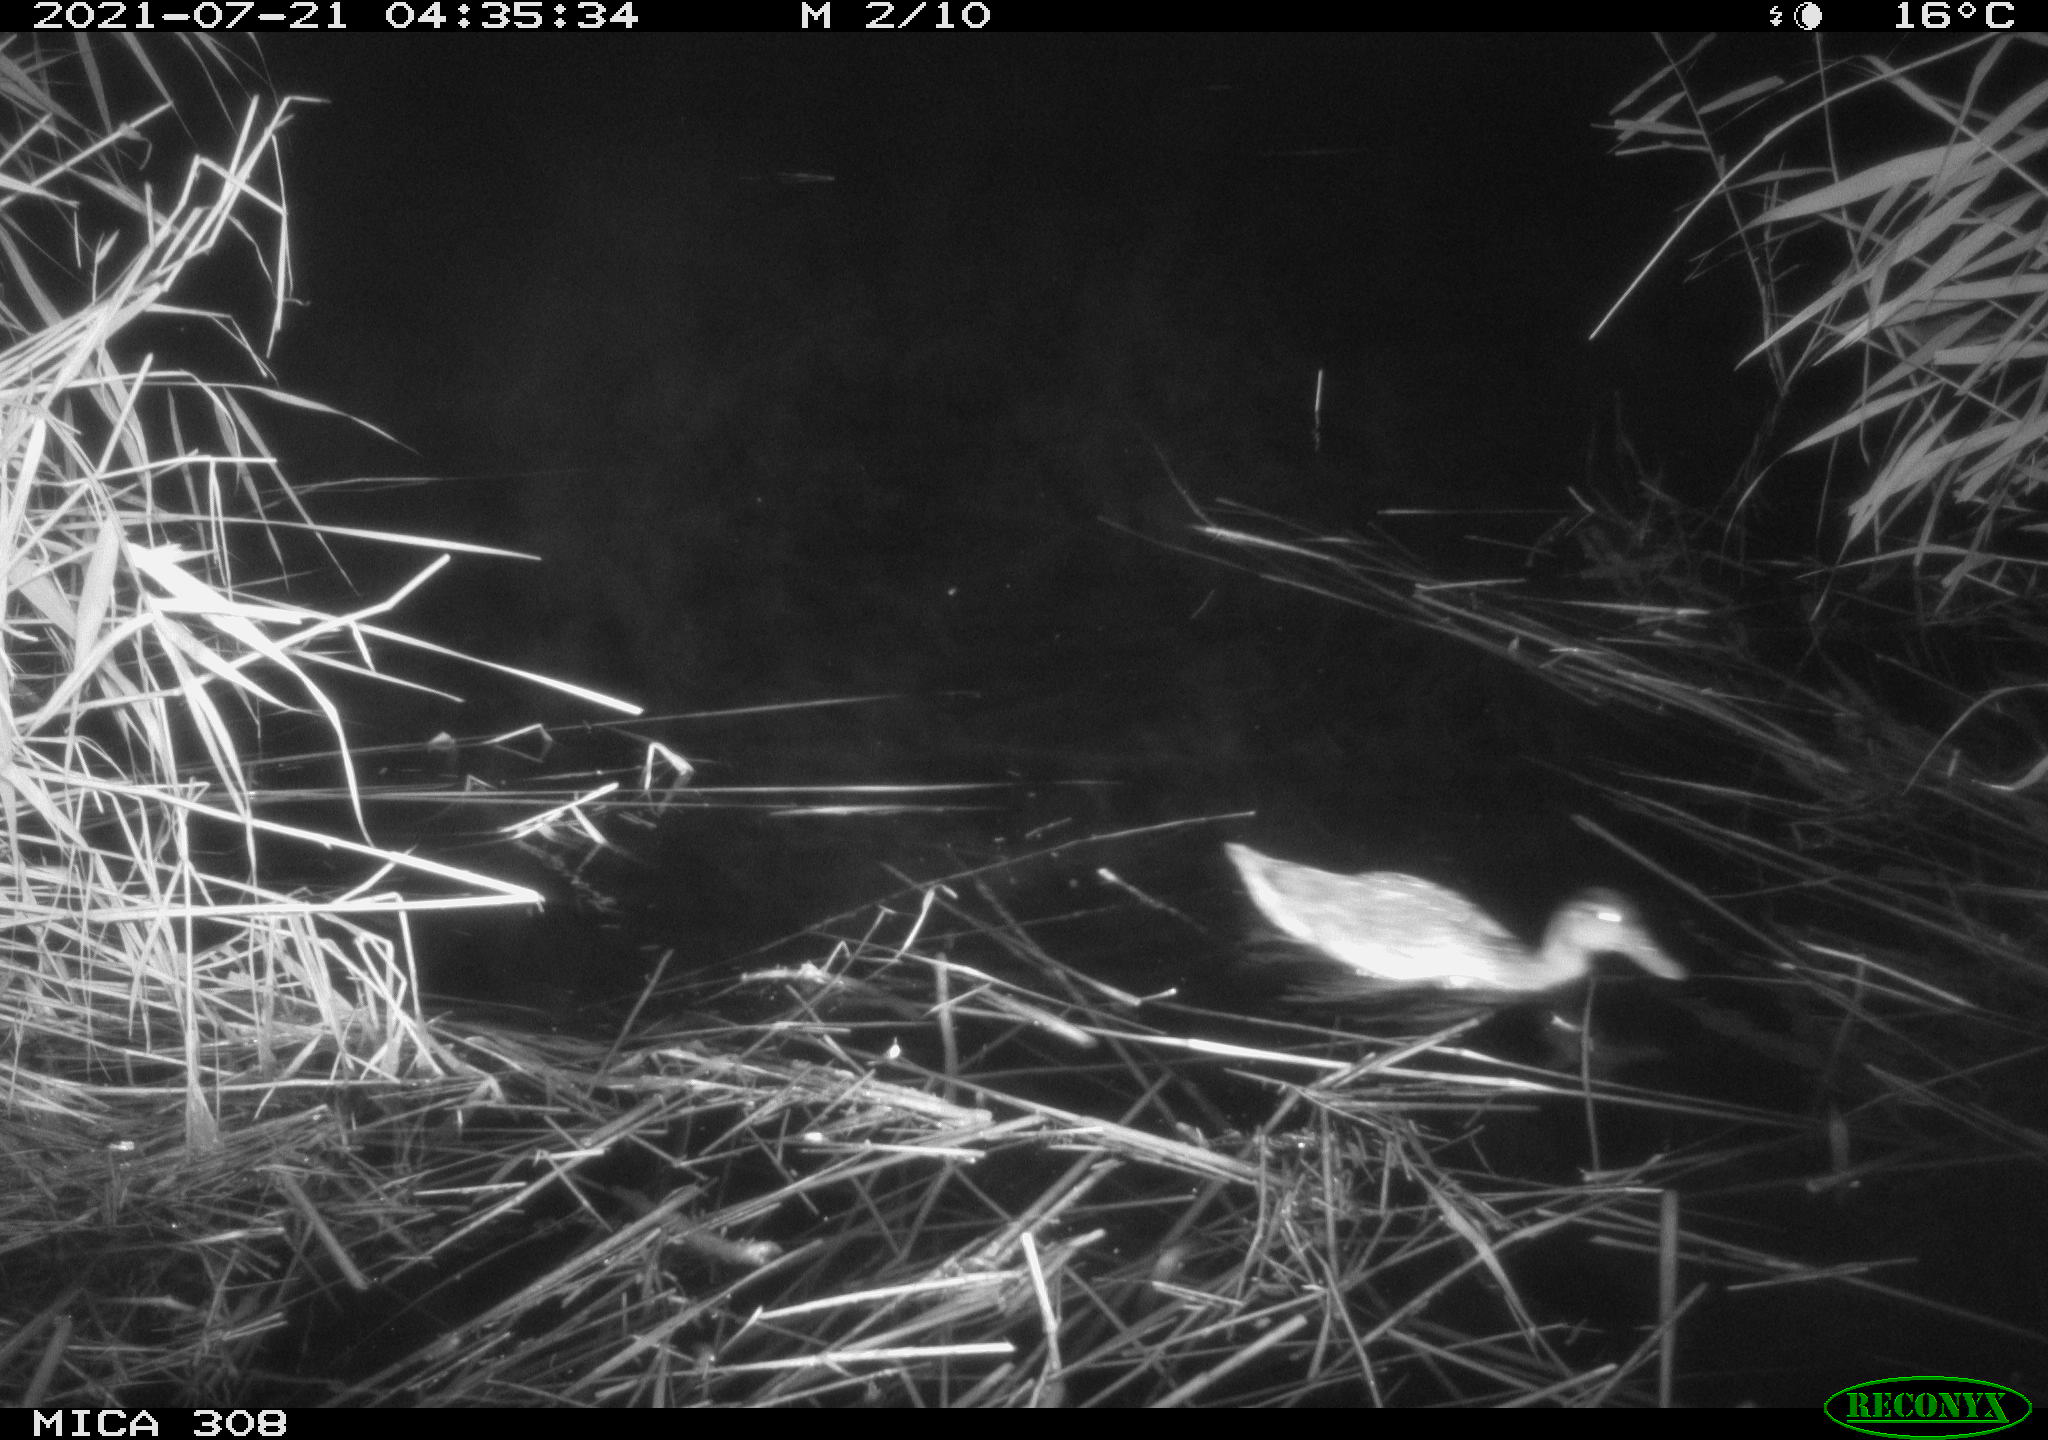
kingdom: Animalia
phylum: Chordata
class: Aves
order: Gruiformes
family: Rallidae
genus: Gallinula
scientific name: Gallinula chloropus
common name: Common moorhen
